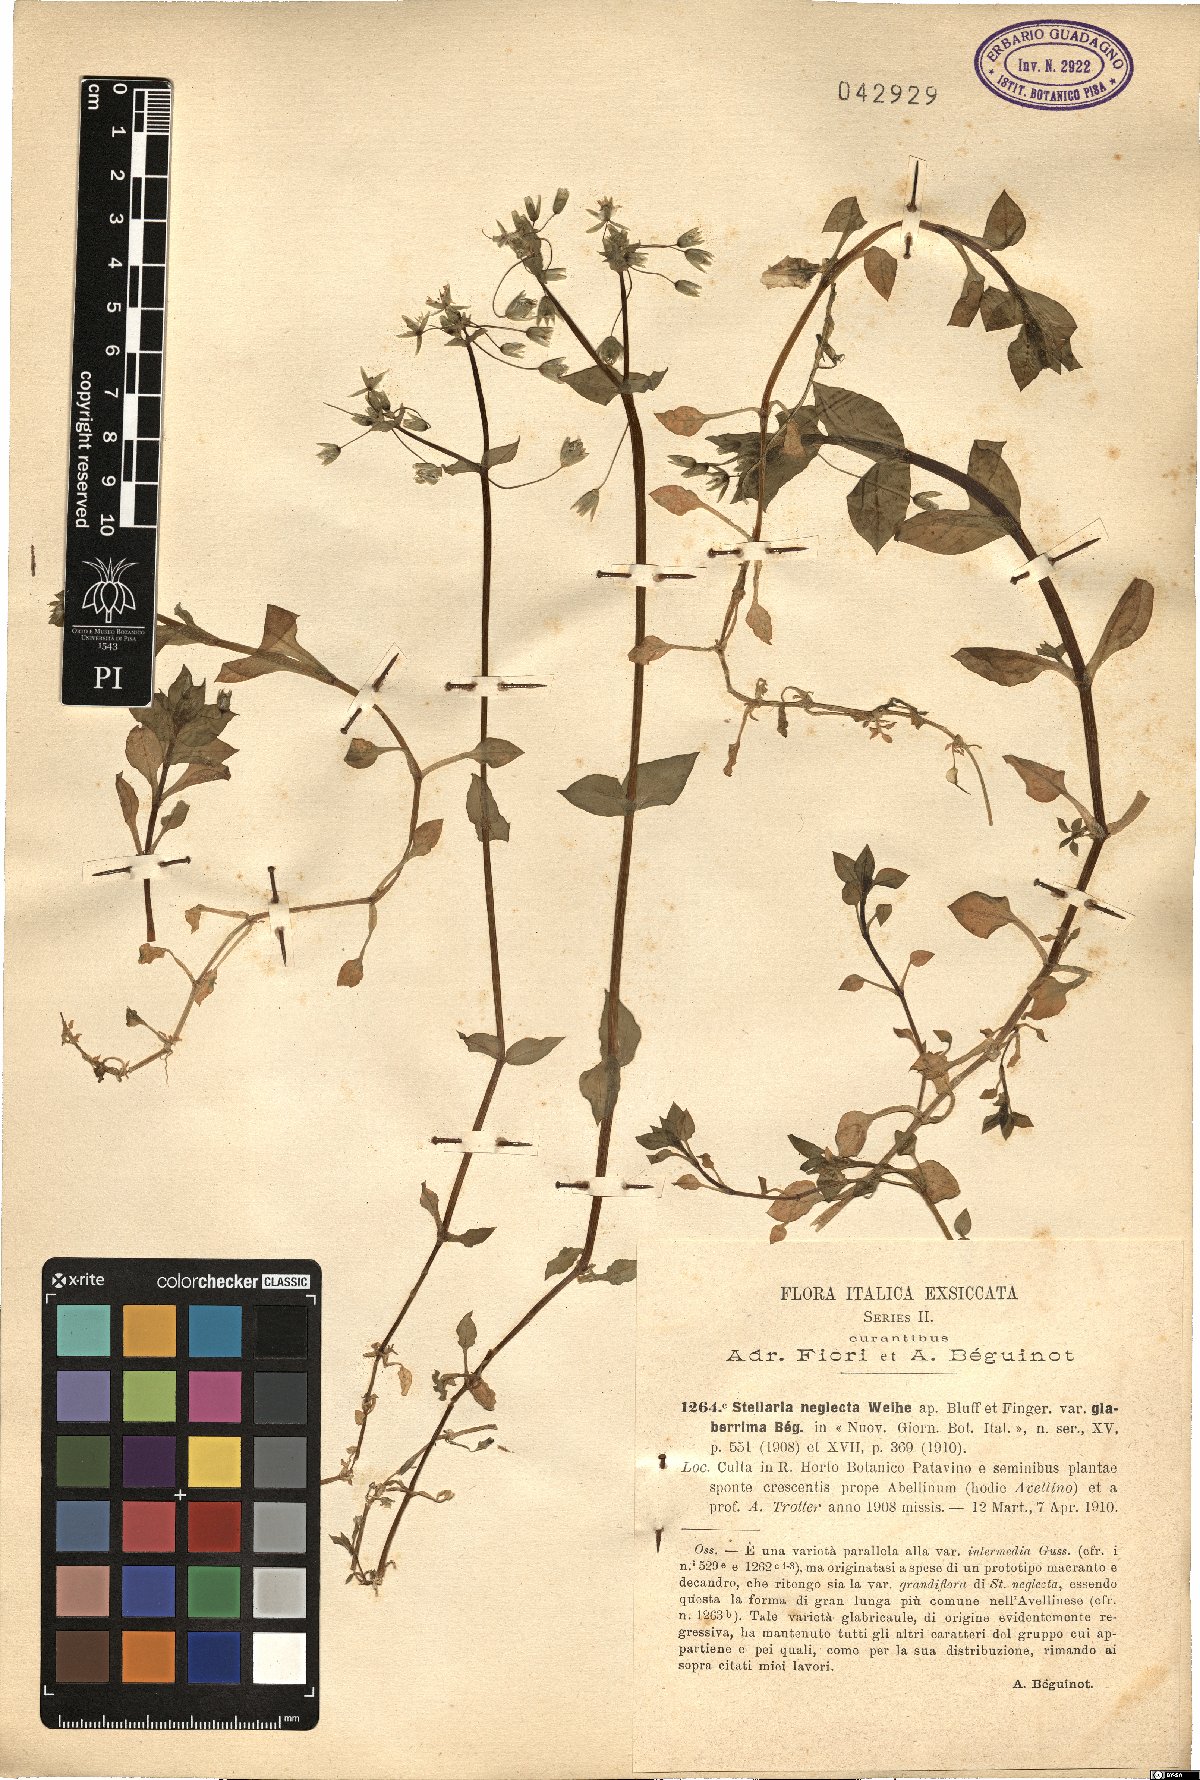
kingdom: Plantae
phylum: Tracheophyta
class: Magnoliopsida
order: Caryophyllales
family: Caryophyllaceae
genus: Stellaria
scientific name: Stellaria neglecta
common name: Greater chickweed
